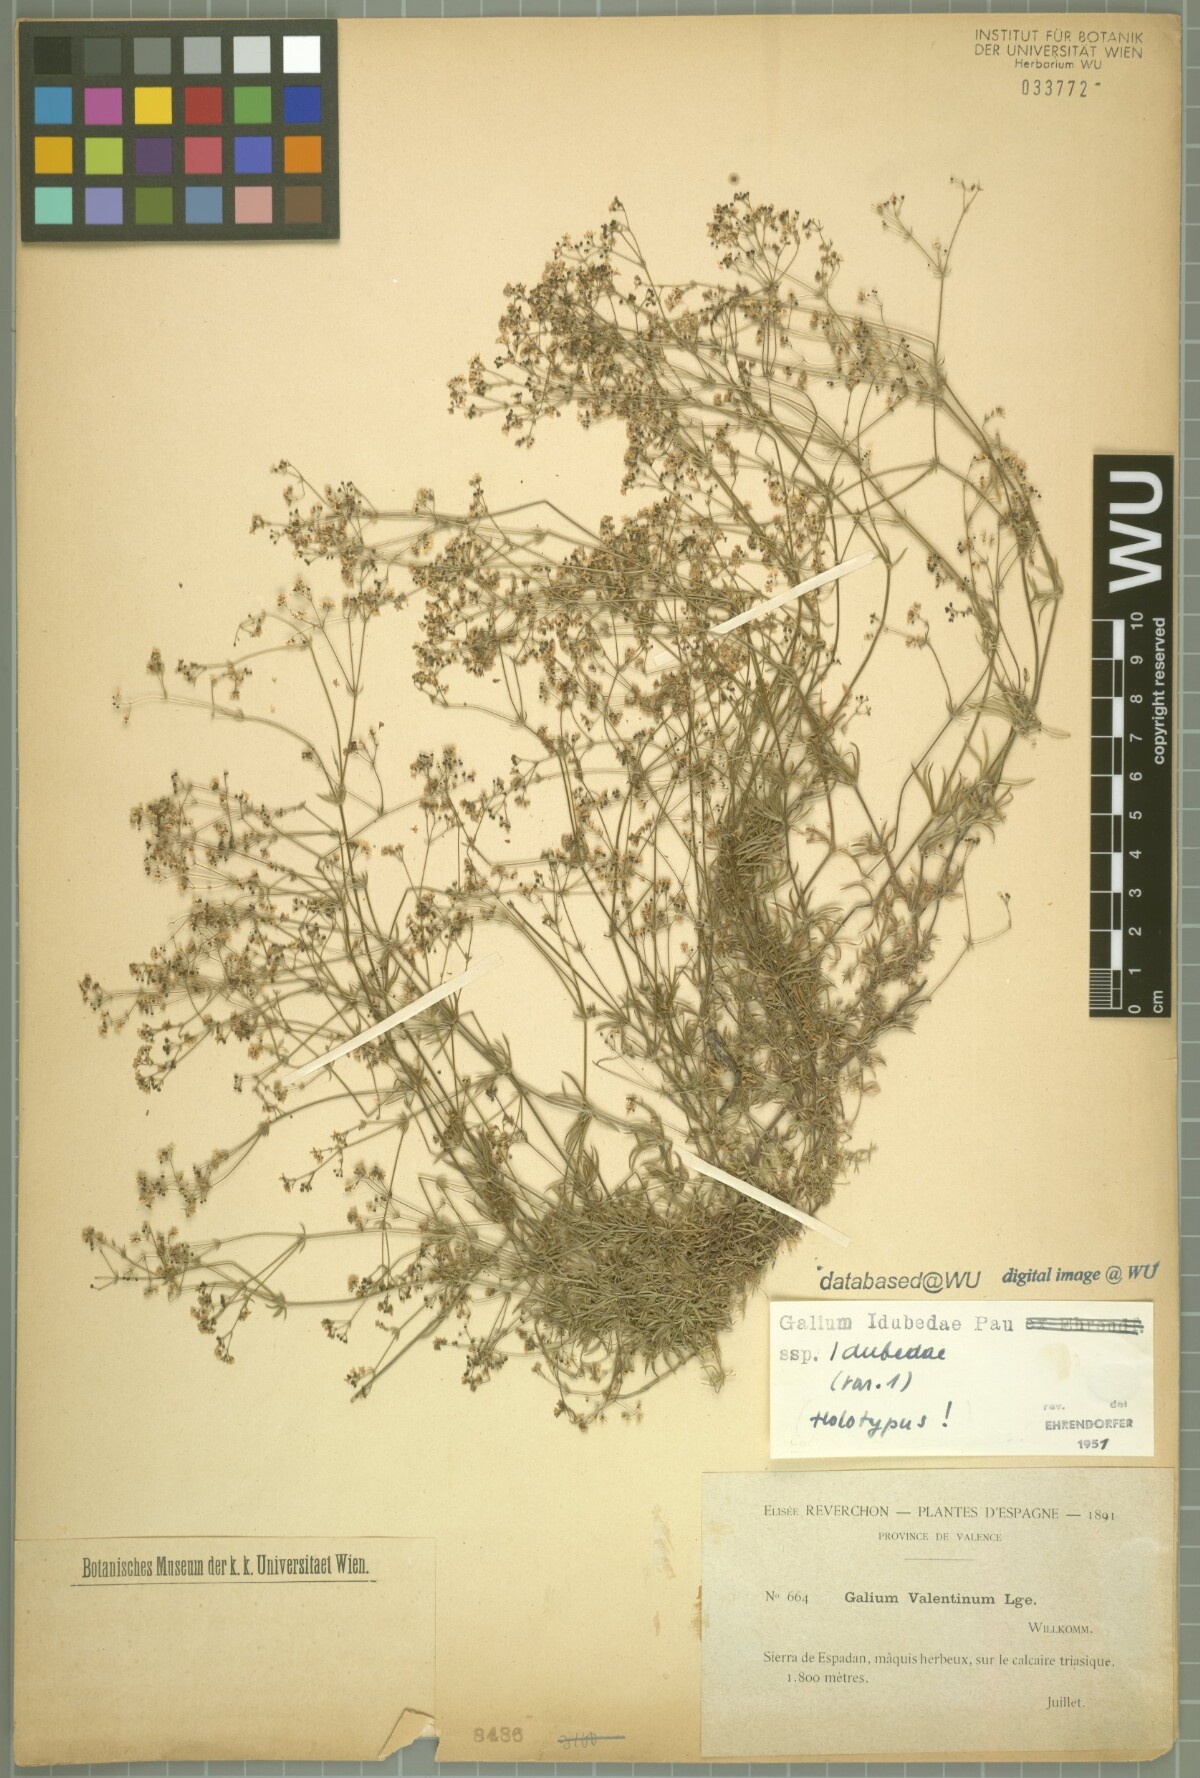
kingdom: Plantae
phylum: Tracheophyta
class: Magnoliopsida
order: Gentianales
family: Rubiaceae
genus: Galium
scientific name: Galium idubedae
